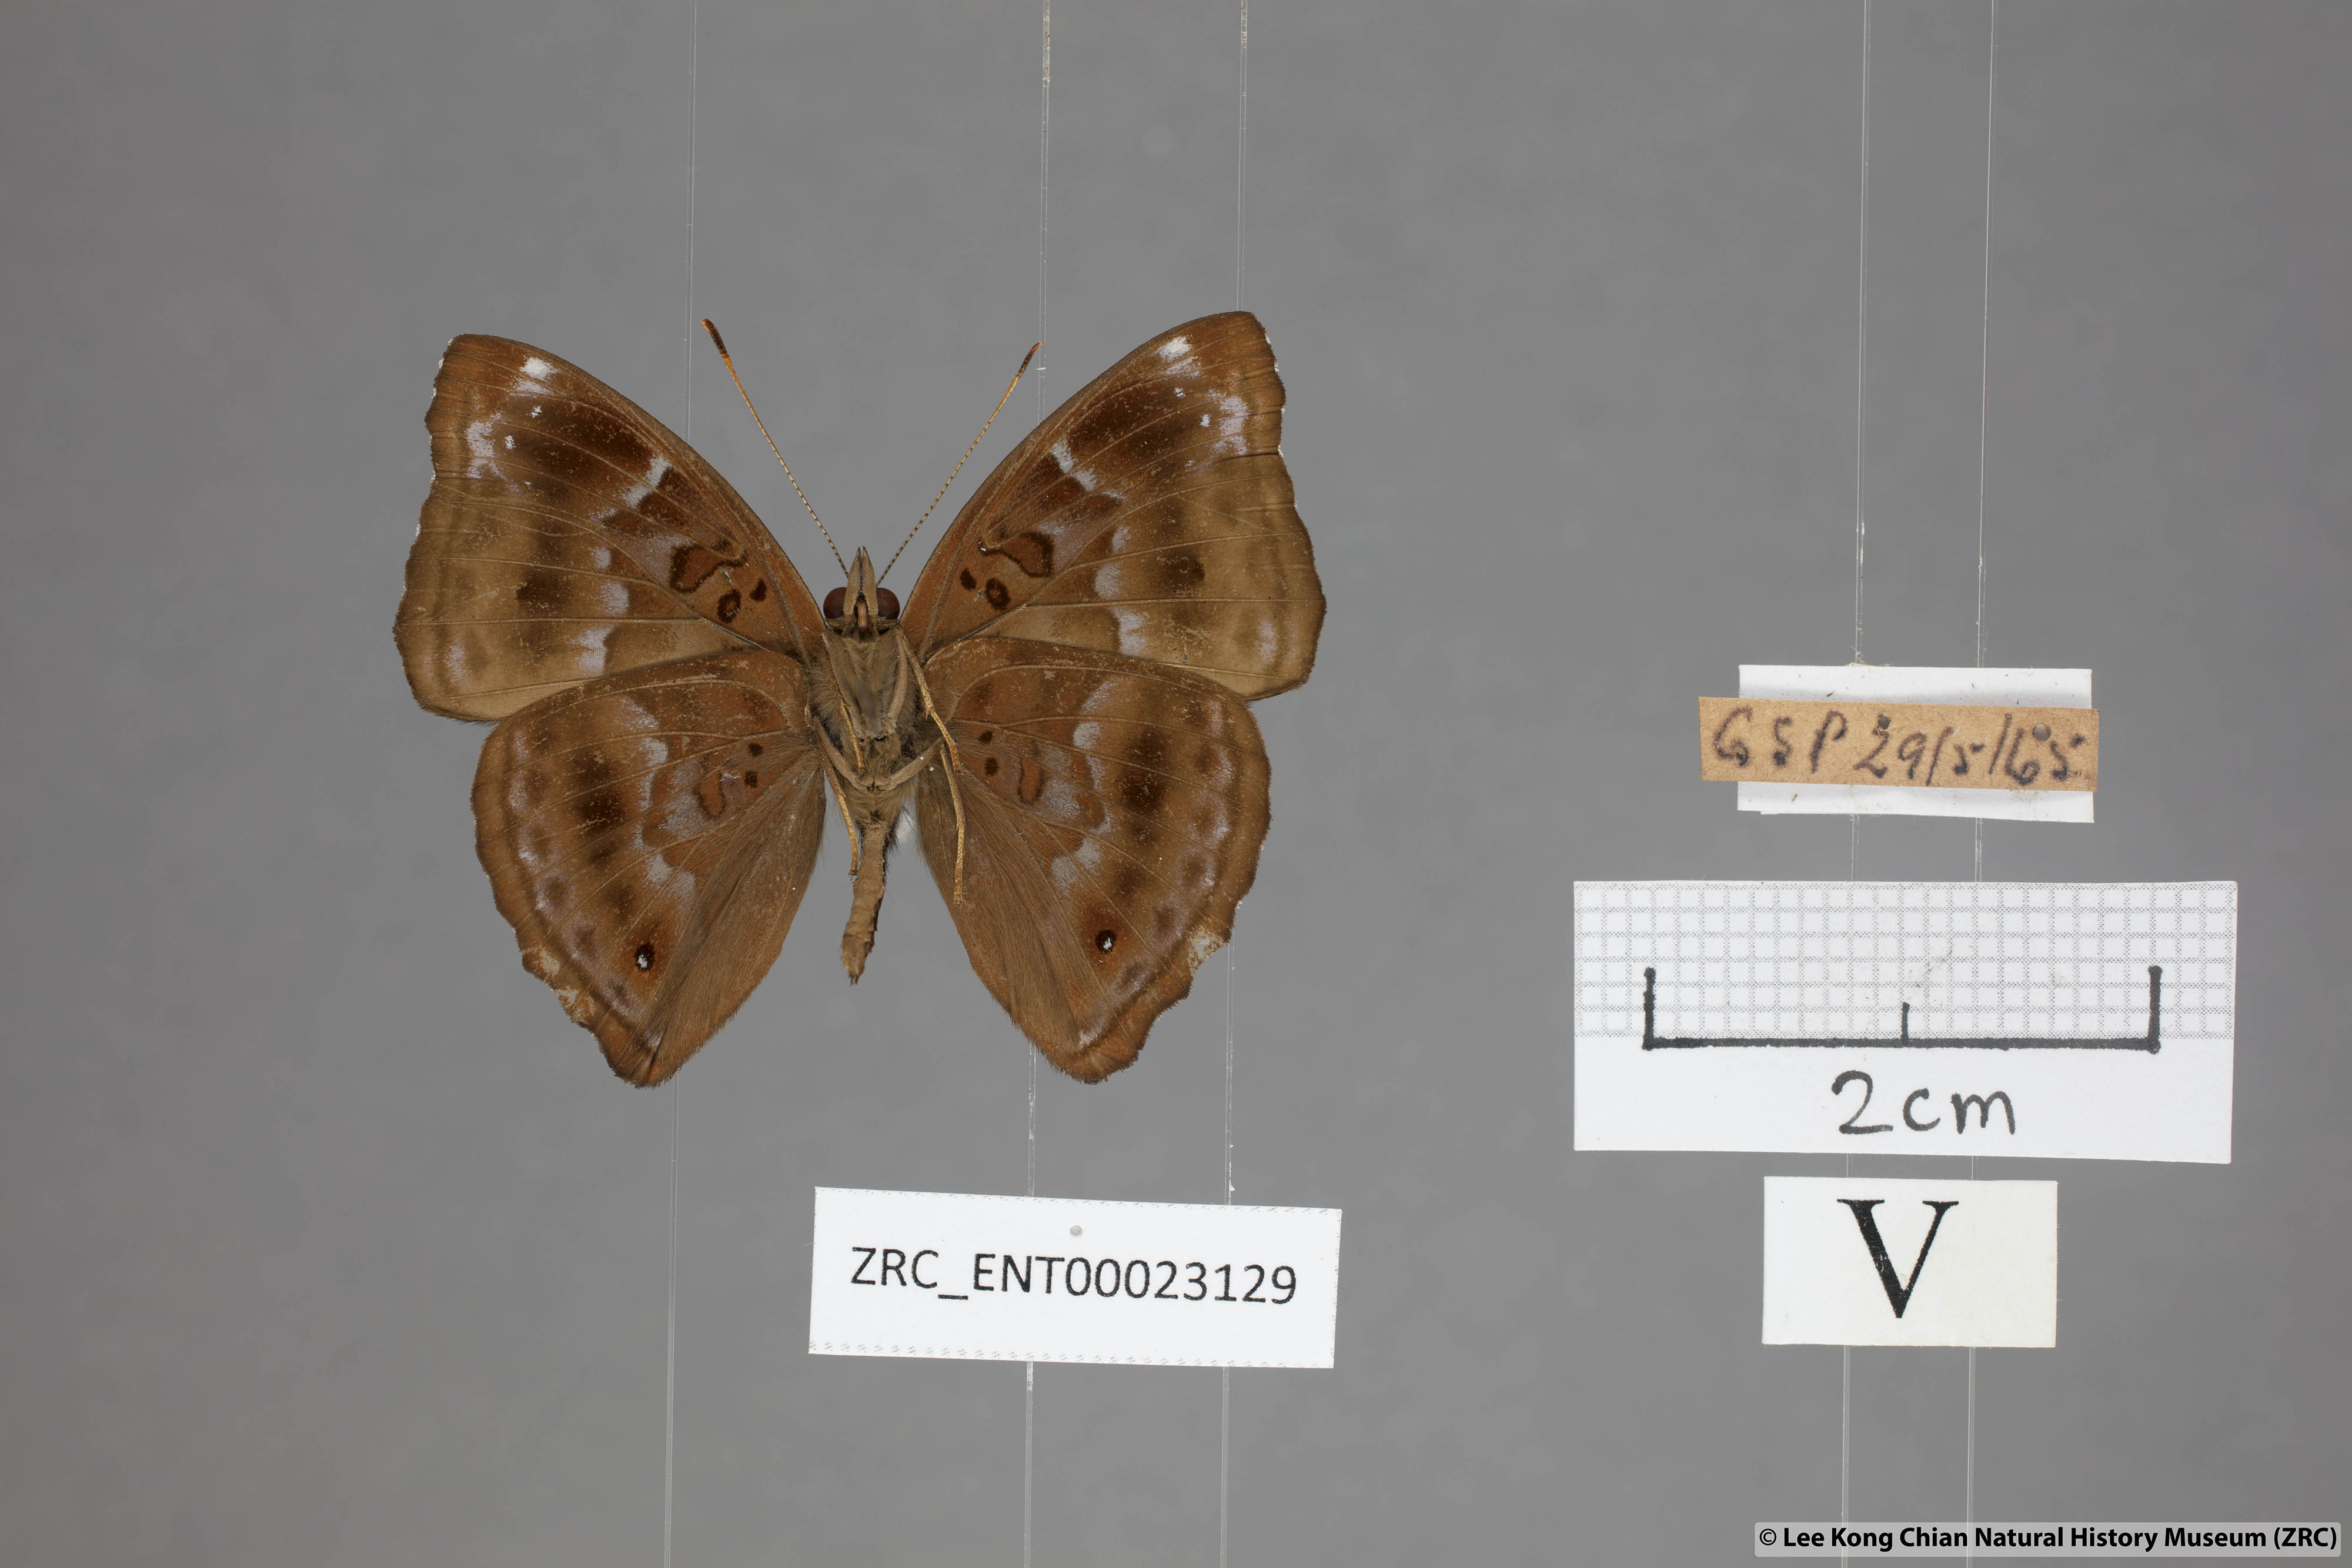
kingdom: Animalia
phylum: Arthropoda
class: Insecta
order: Lepidoptera
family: Nymphalidae
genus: Apatura
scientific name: Apatura Rohana spec
